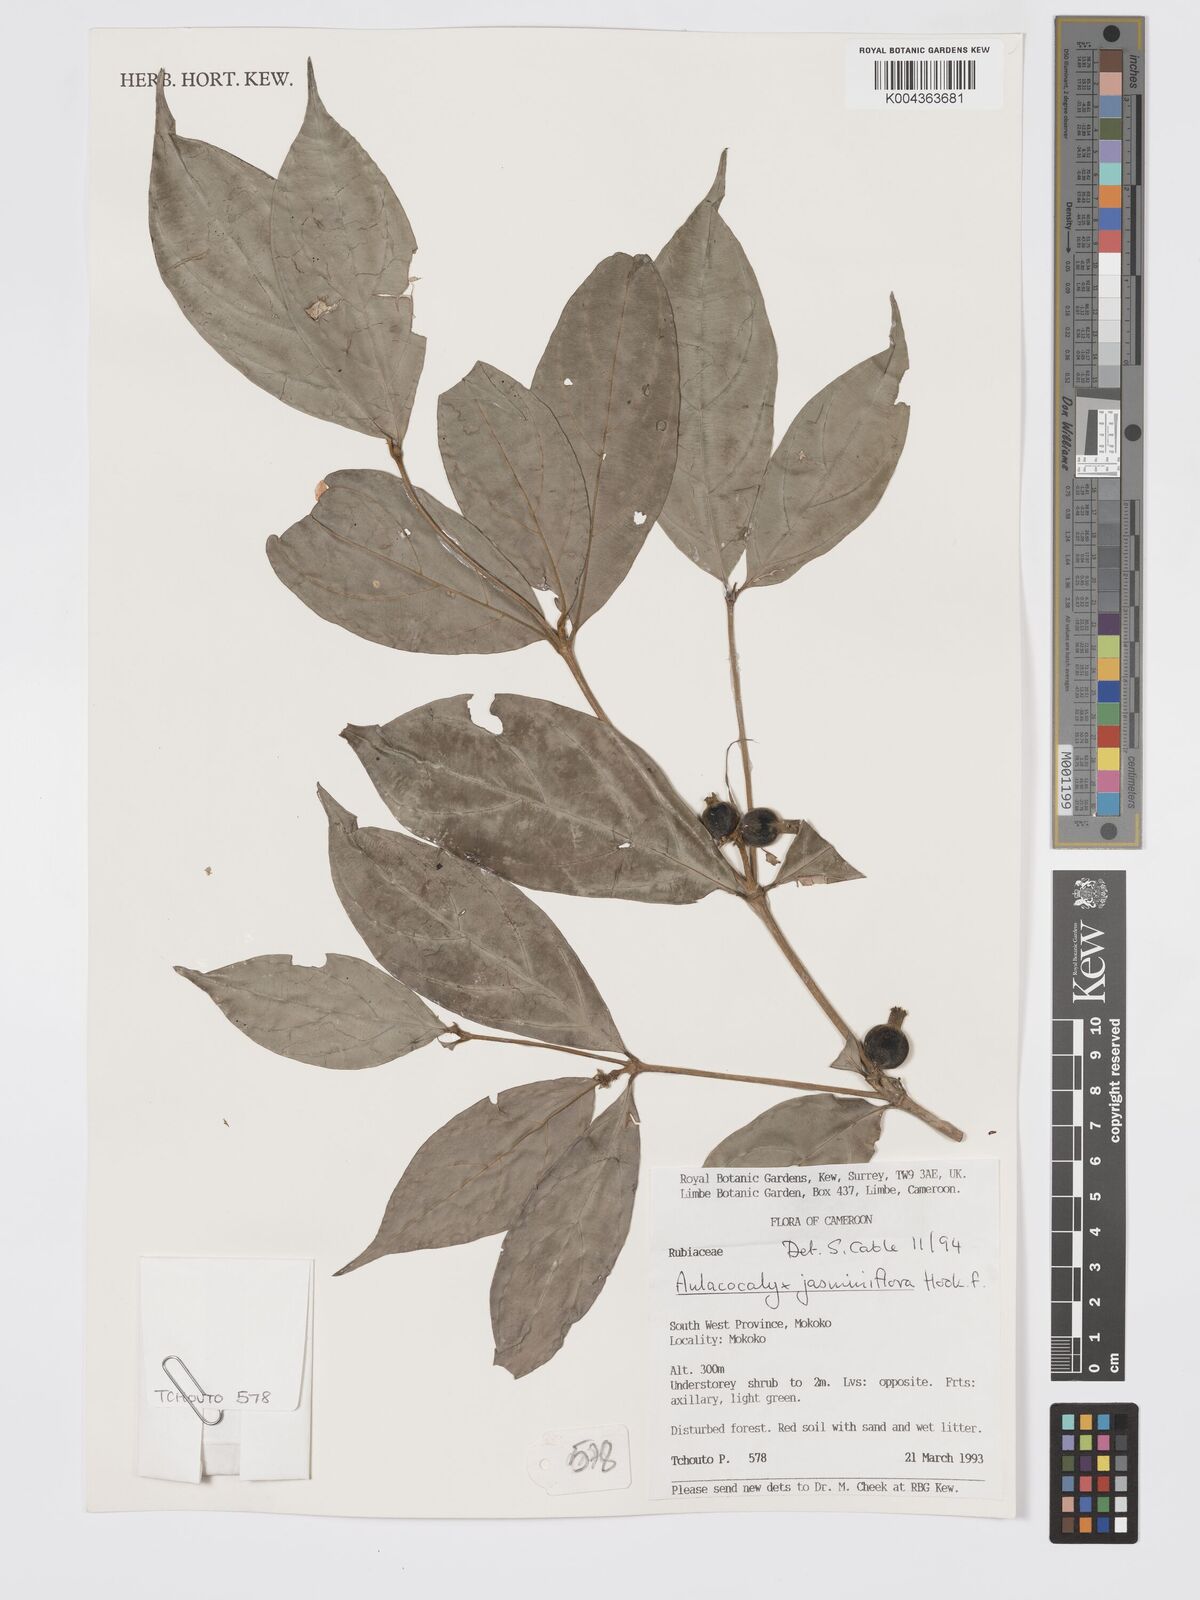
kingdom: Plantae
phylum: Tracheophyta
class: Magnoliopsida
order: Gentianales
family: Rubiaceae
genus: Aulacocalyx
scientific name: Aulacocalyx jasminiflora
